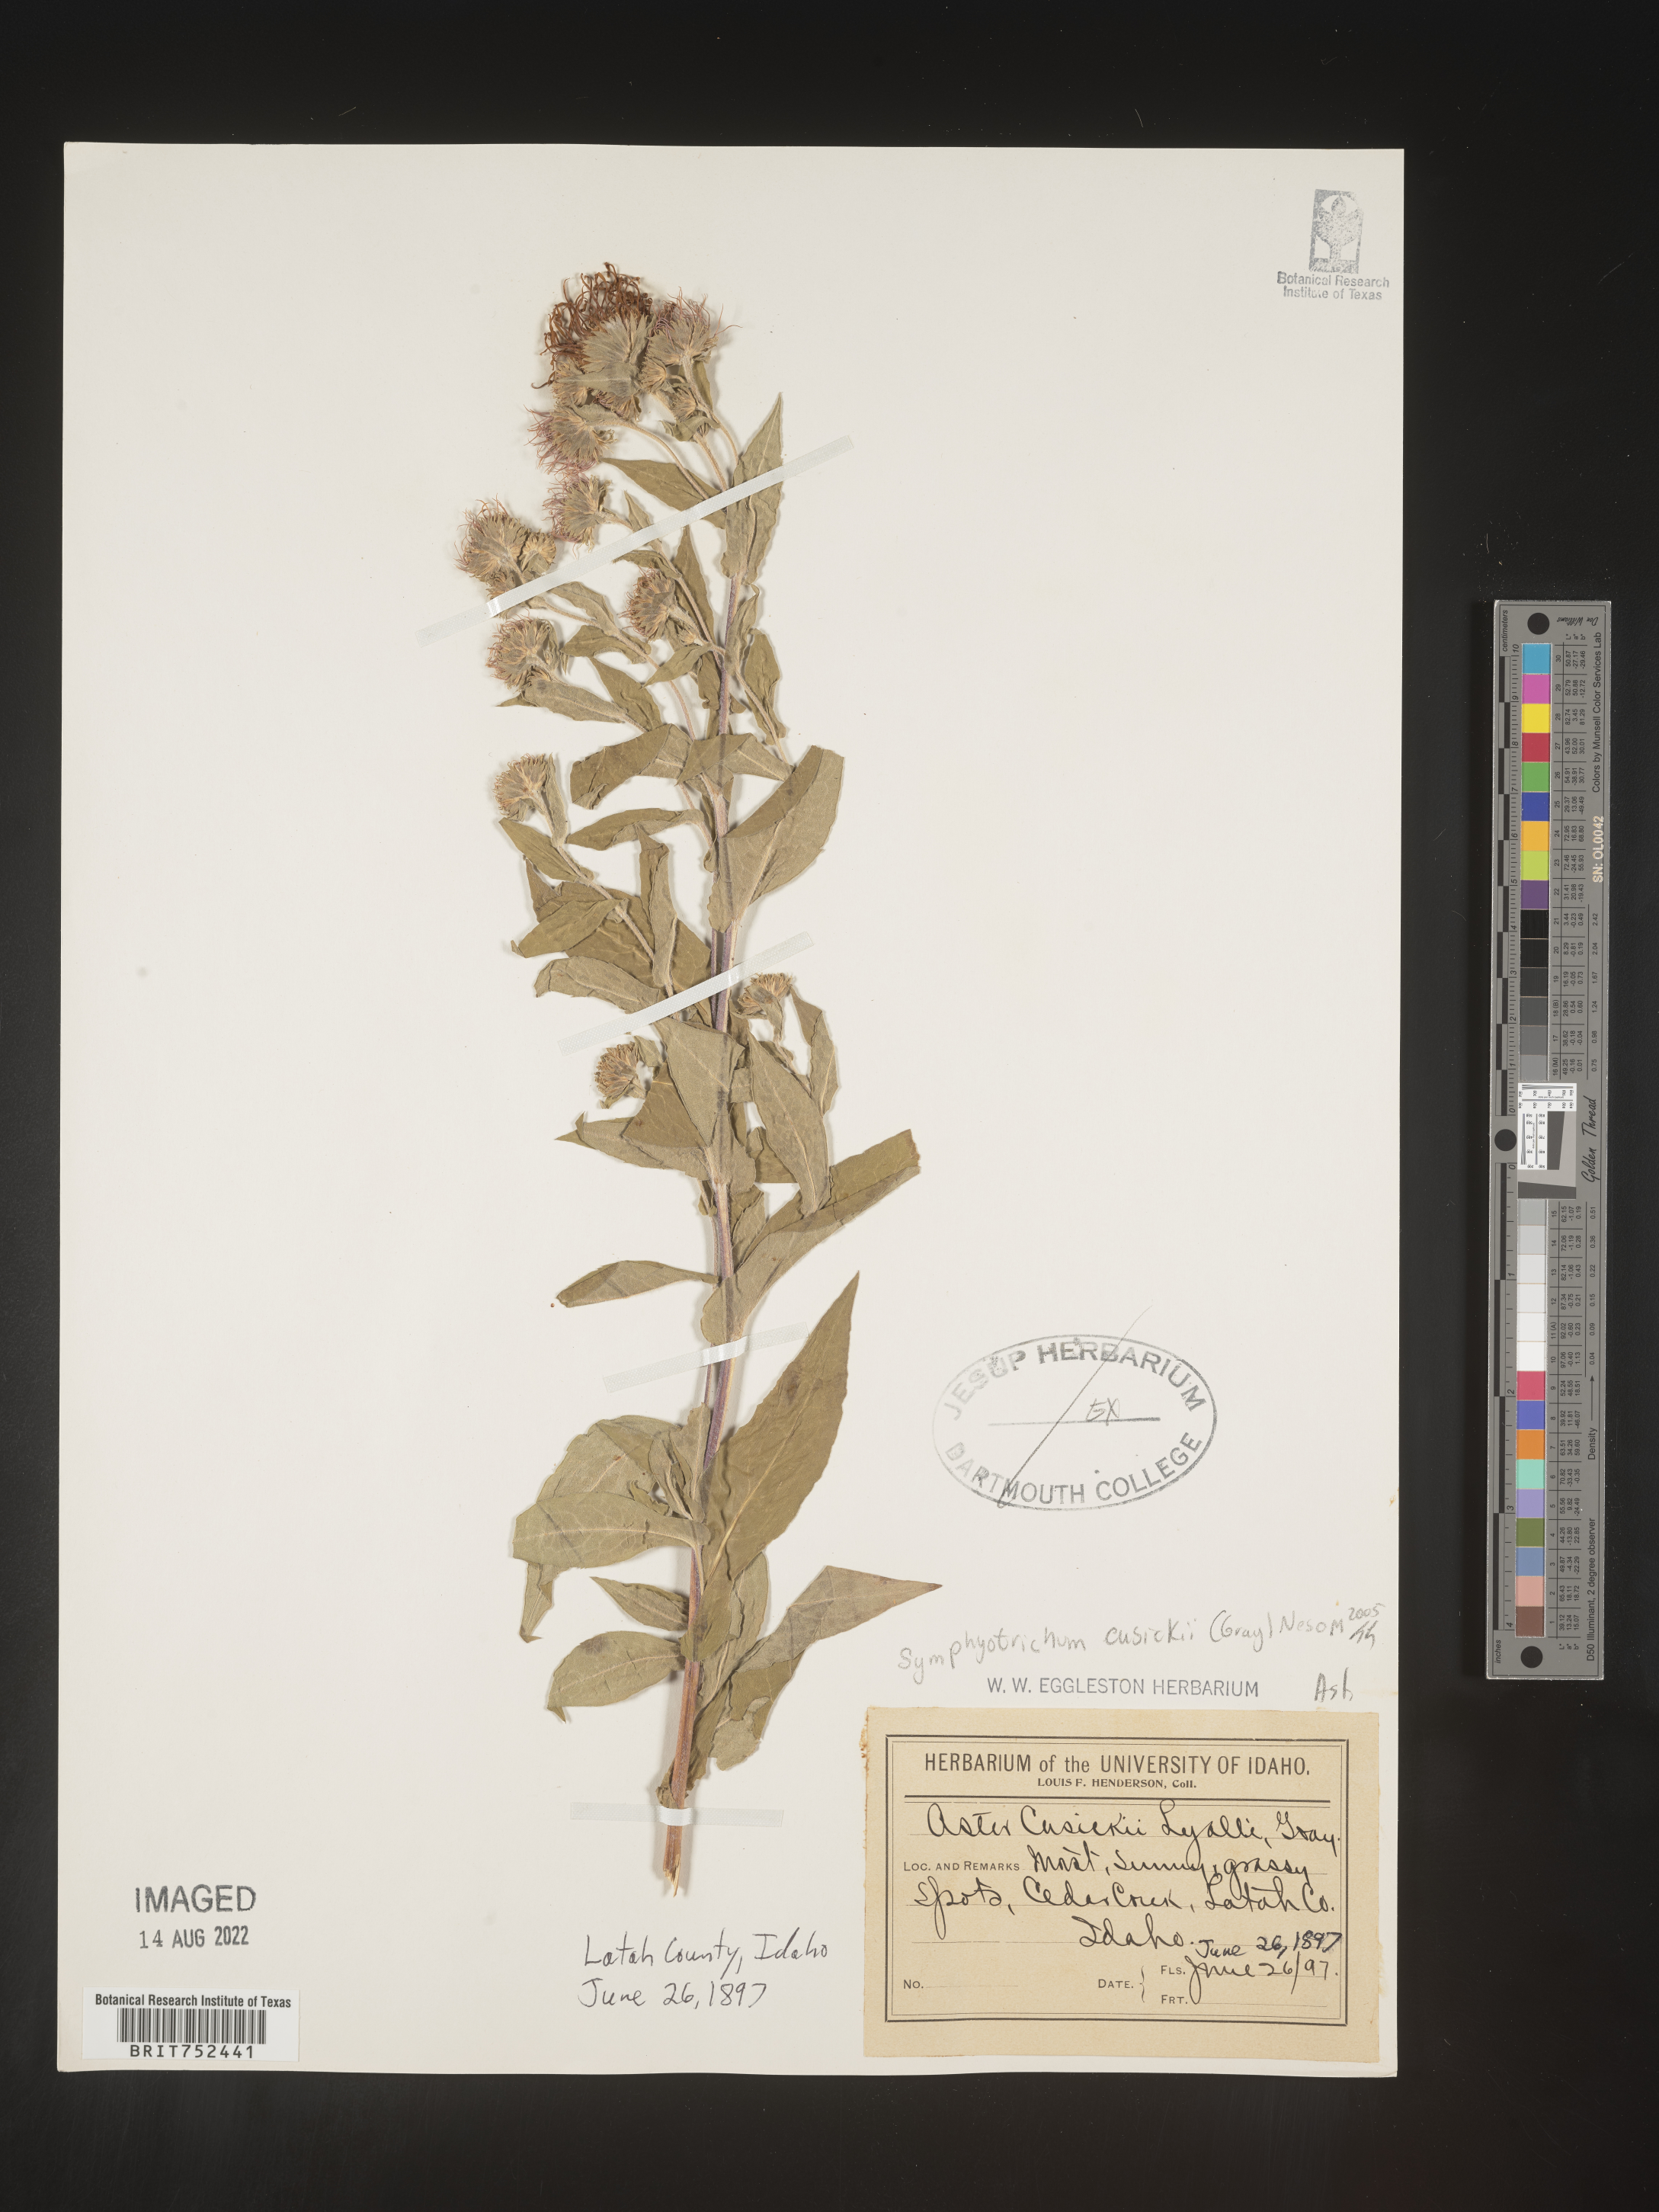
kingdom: Plantae
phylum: Tracheophyta
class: Magnoliopsida
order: Asterales
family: Asteraceae
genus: Symphyotrichum
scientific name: Symphyotrichum jessicae
